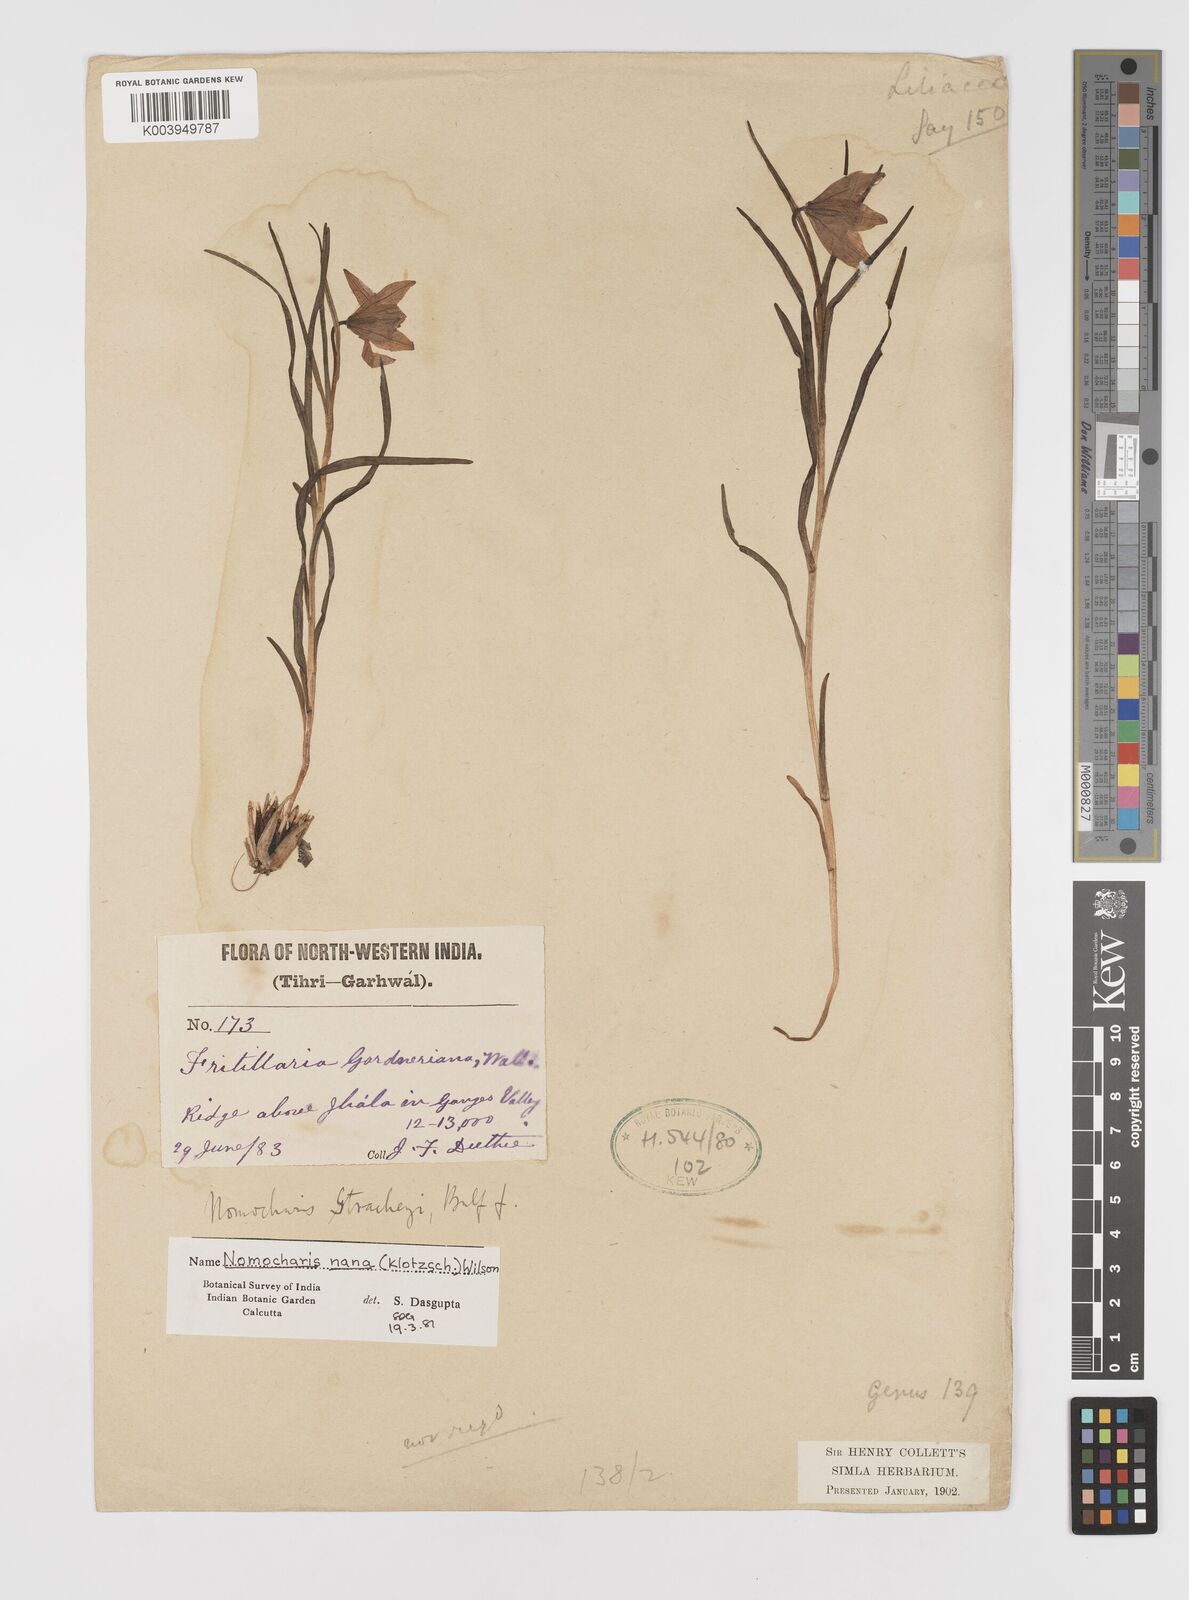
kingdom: Plantae
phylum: Tracheophyta
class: Liliopsida
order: Liliales
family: Liliaceae
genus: Lilium
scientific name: Lilium nanum
